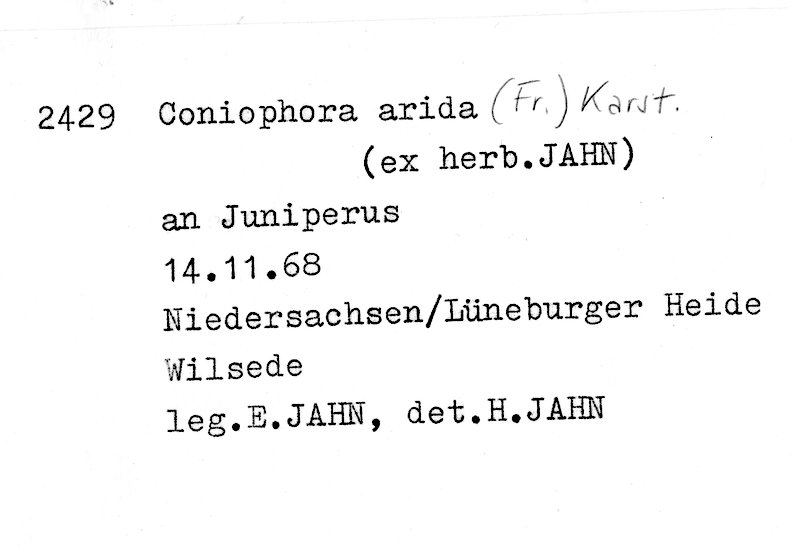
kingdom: Fungi
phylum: Basidiomycota
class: Agaricomycetes
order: Boletales
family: Coniophoraceae
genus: Coniophora
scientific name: Coniophora arida
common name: Dry duster
